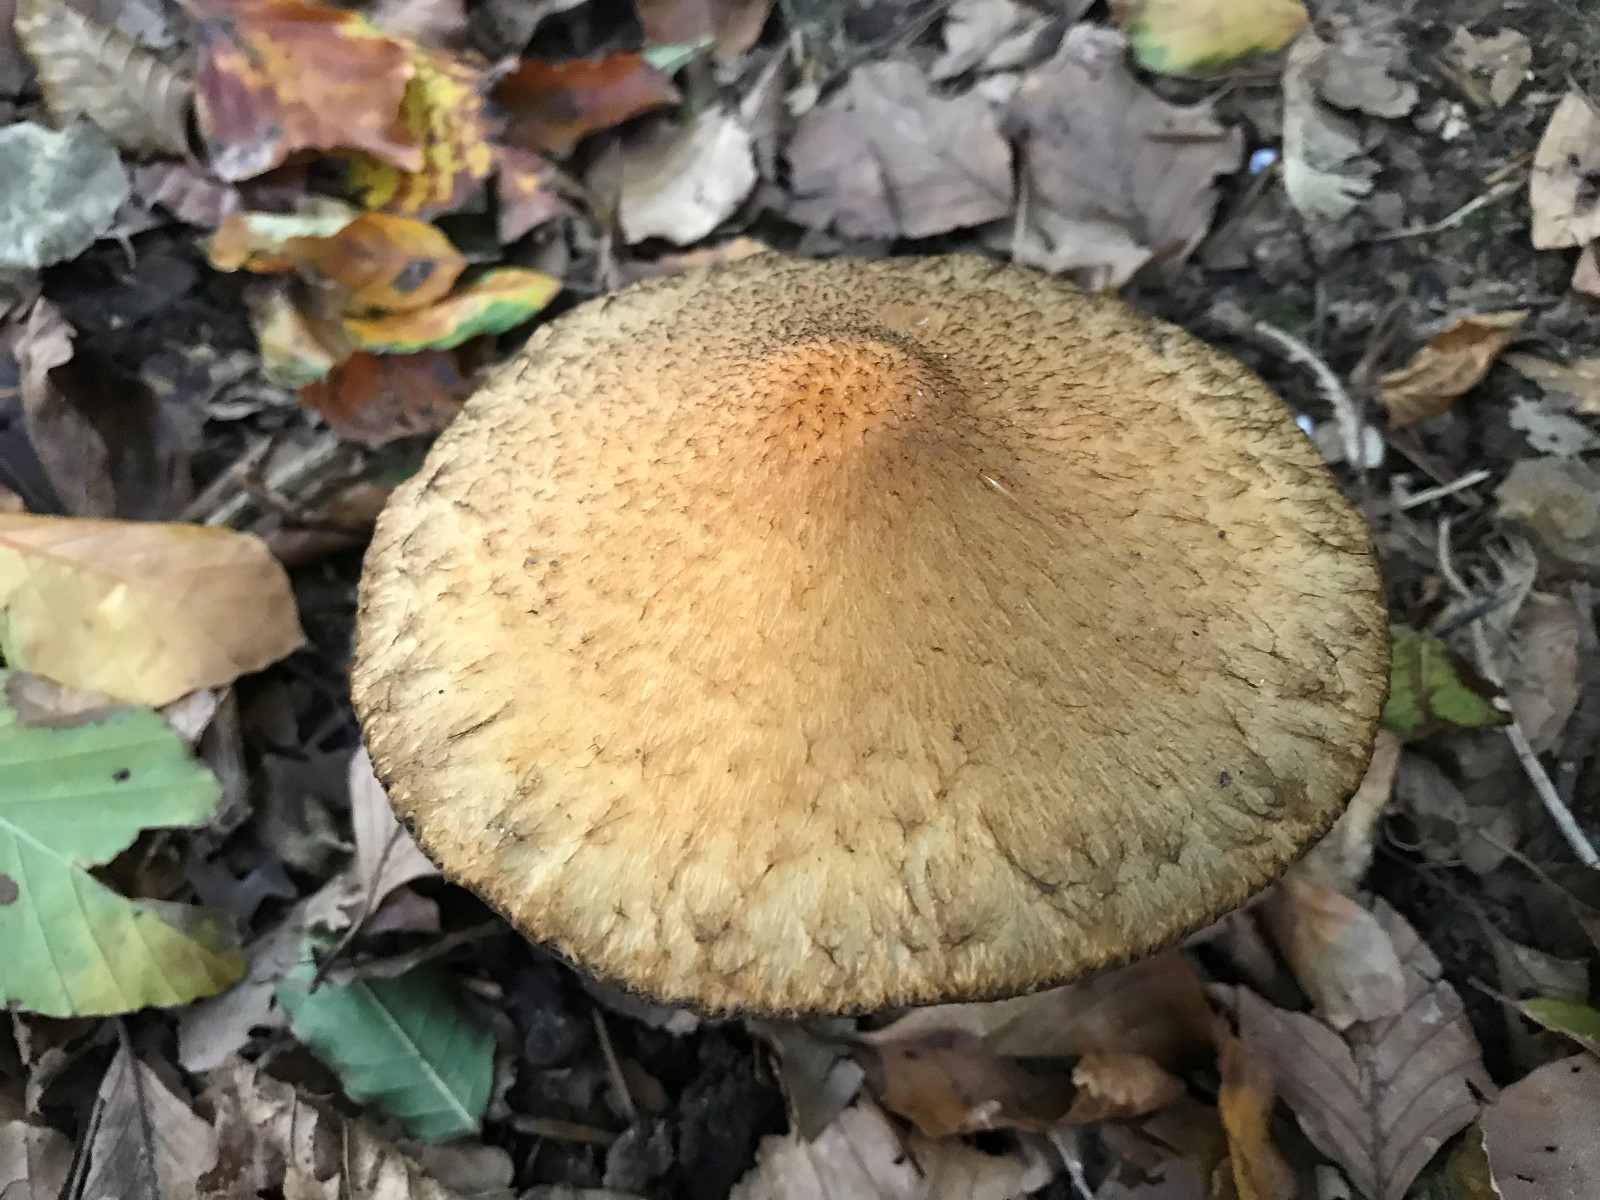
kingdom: Fungi
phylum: Basidiomycota
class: Agaricomycetes
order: Agaricales
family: Psathyrellaceae
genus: Lacrymaria
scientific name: Lacrymaria lacrymabunda
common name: grædende mørkhat
